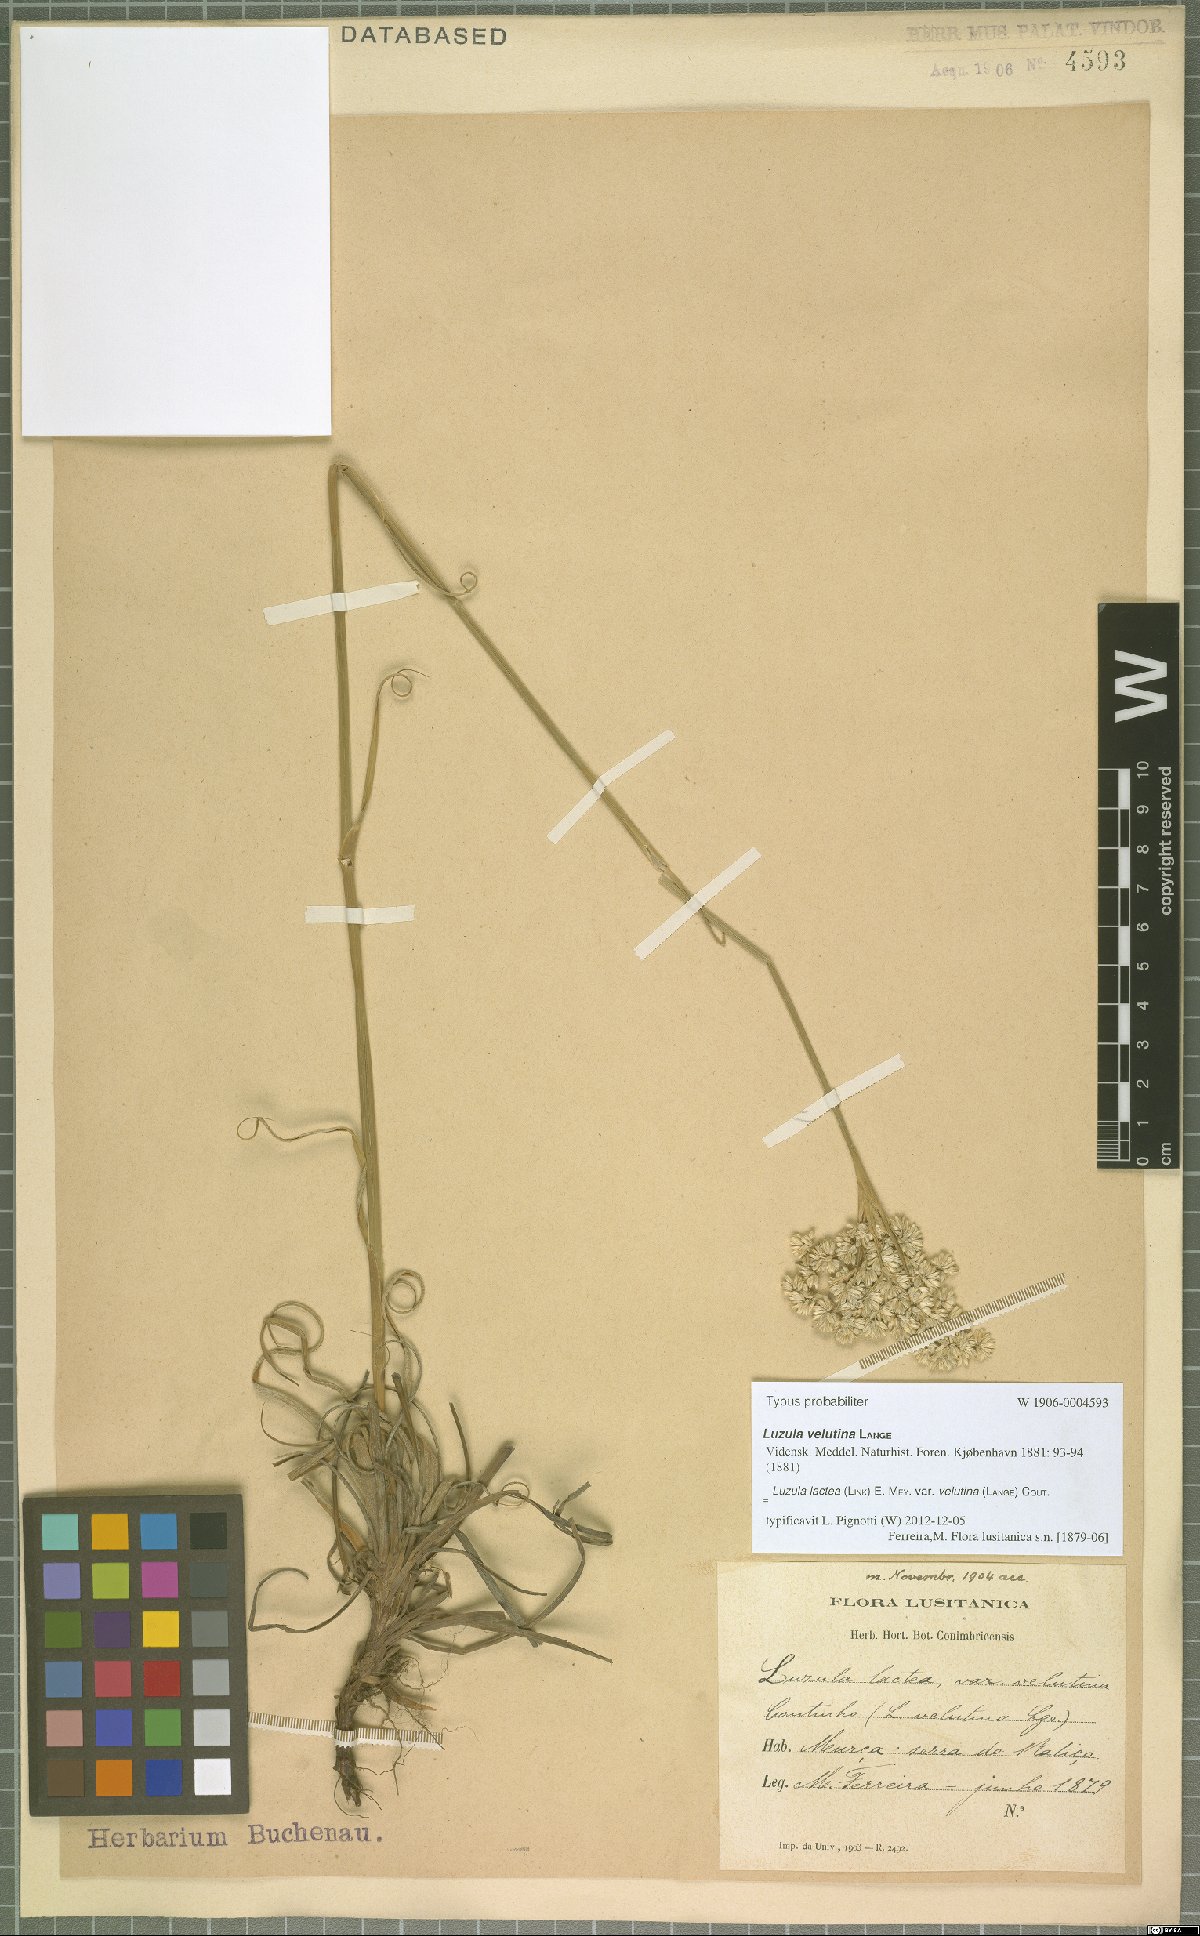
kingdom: Plantae
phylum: Tracheophyta
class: Liliopsida
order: Poales
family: Juncaceae
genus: Luzula
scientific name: Luzula lactea
